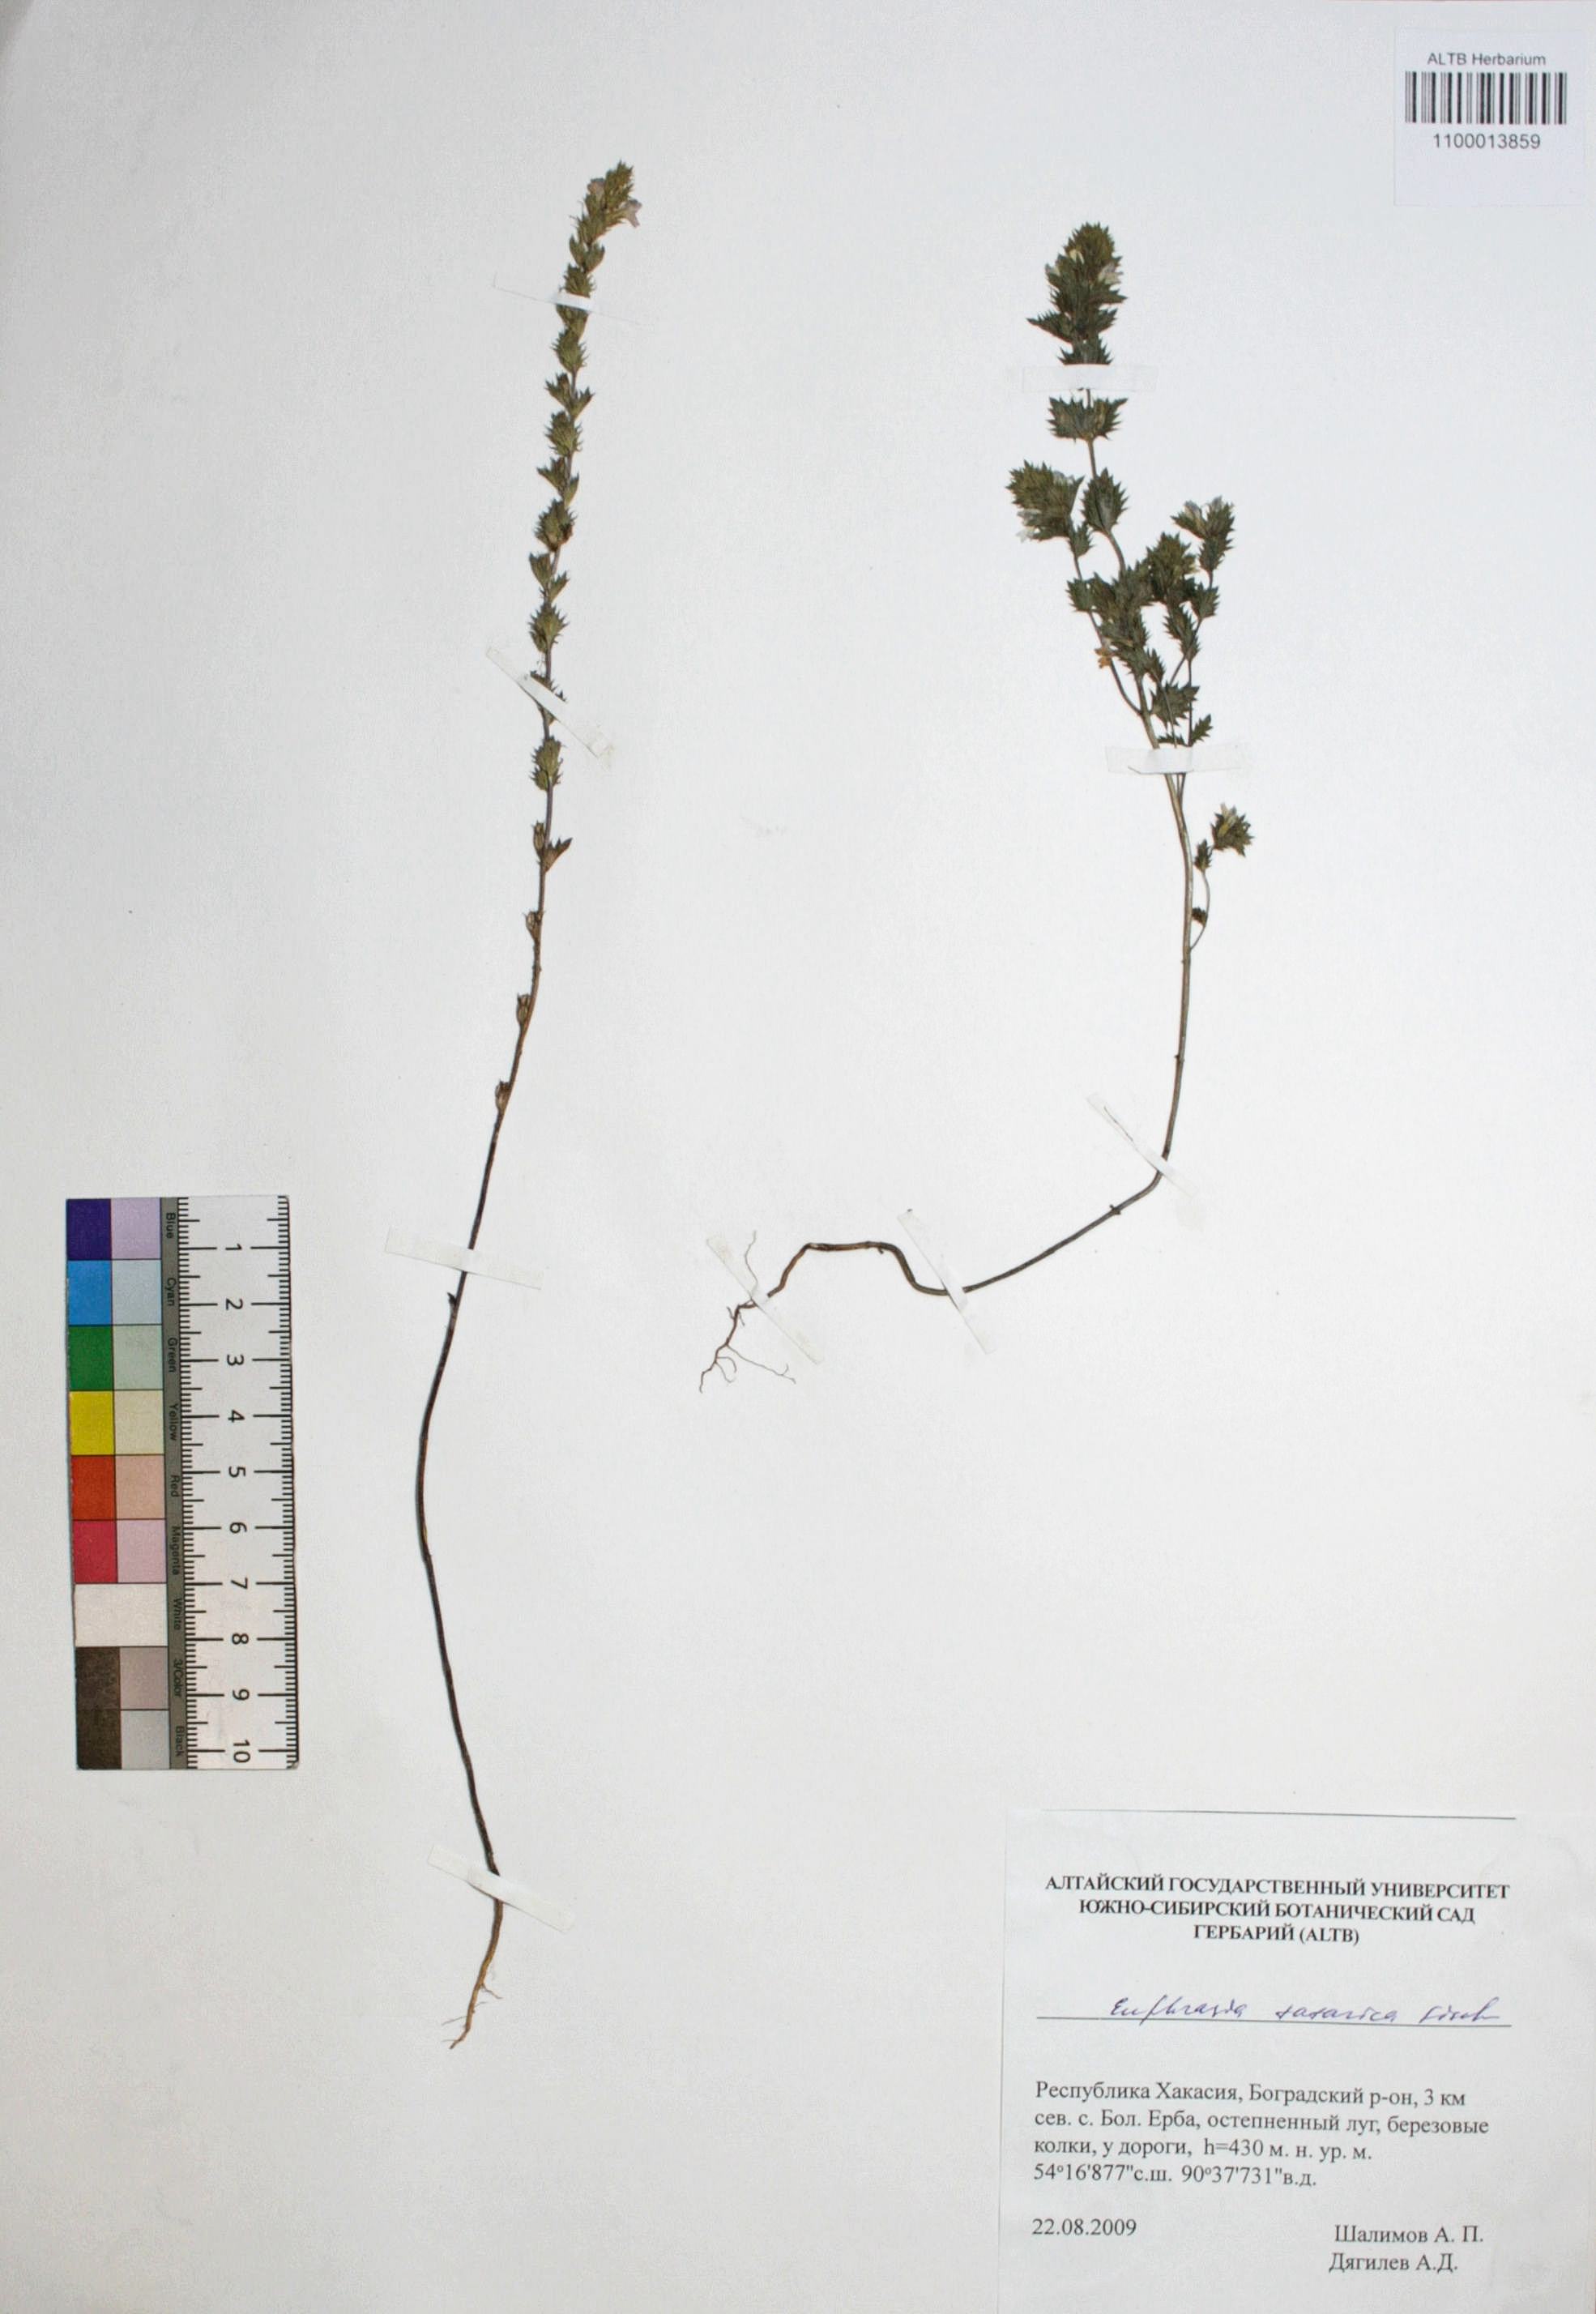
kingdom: Plantae
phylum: Tracheophyta
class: Magnoliopsida
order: Lamiales
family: Orobanchaceae
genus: Euphrasia
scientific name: Euphrasia pectinata
